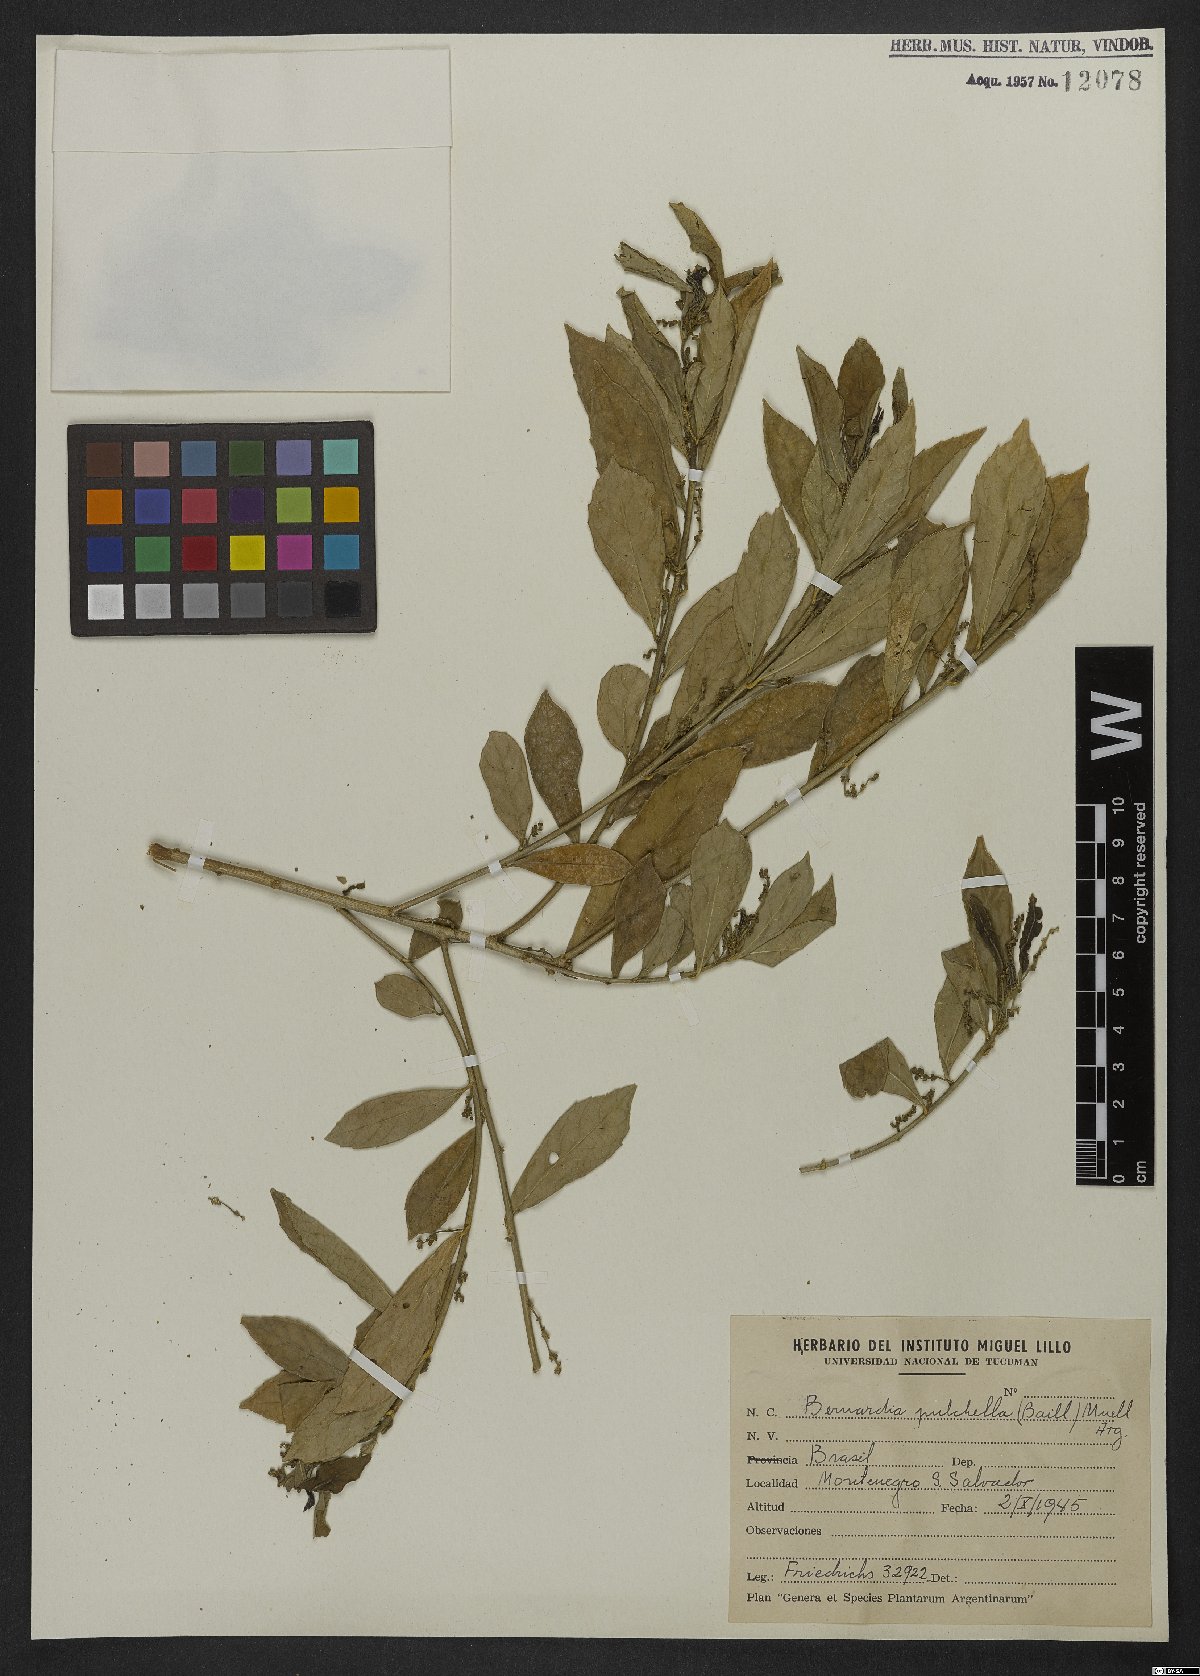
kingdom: Plantae
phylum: Tracheophyta
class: Magnoliopsida
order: Malpighiales
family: Euphorbiaceae
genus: Bernardia
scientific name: Bernardia pulchella
